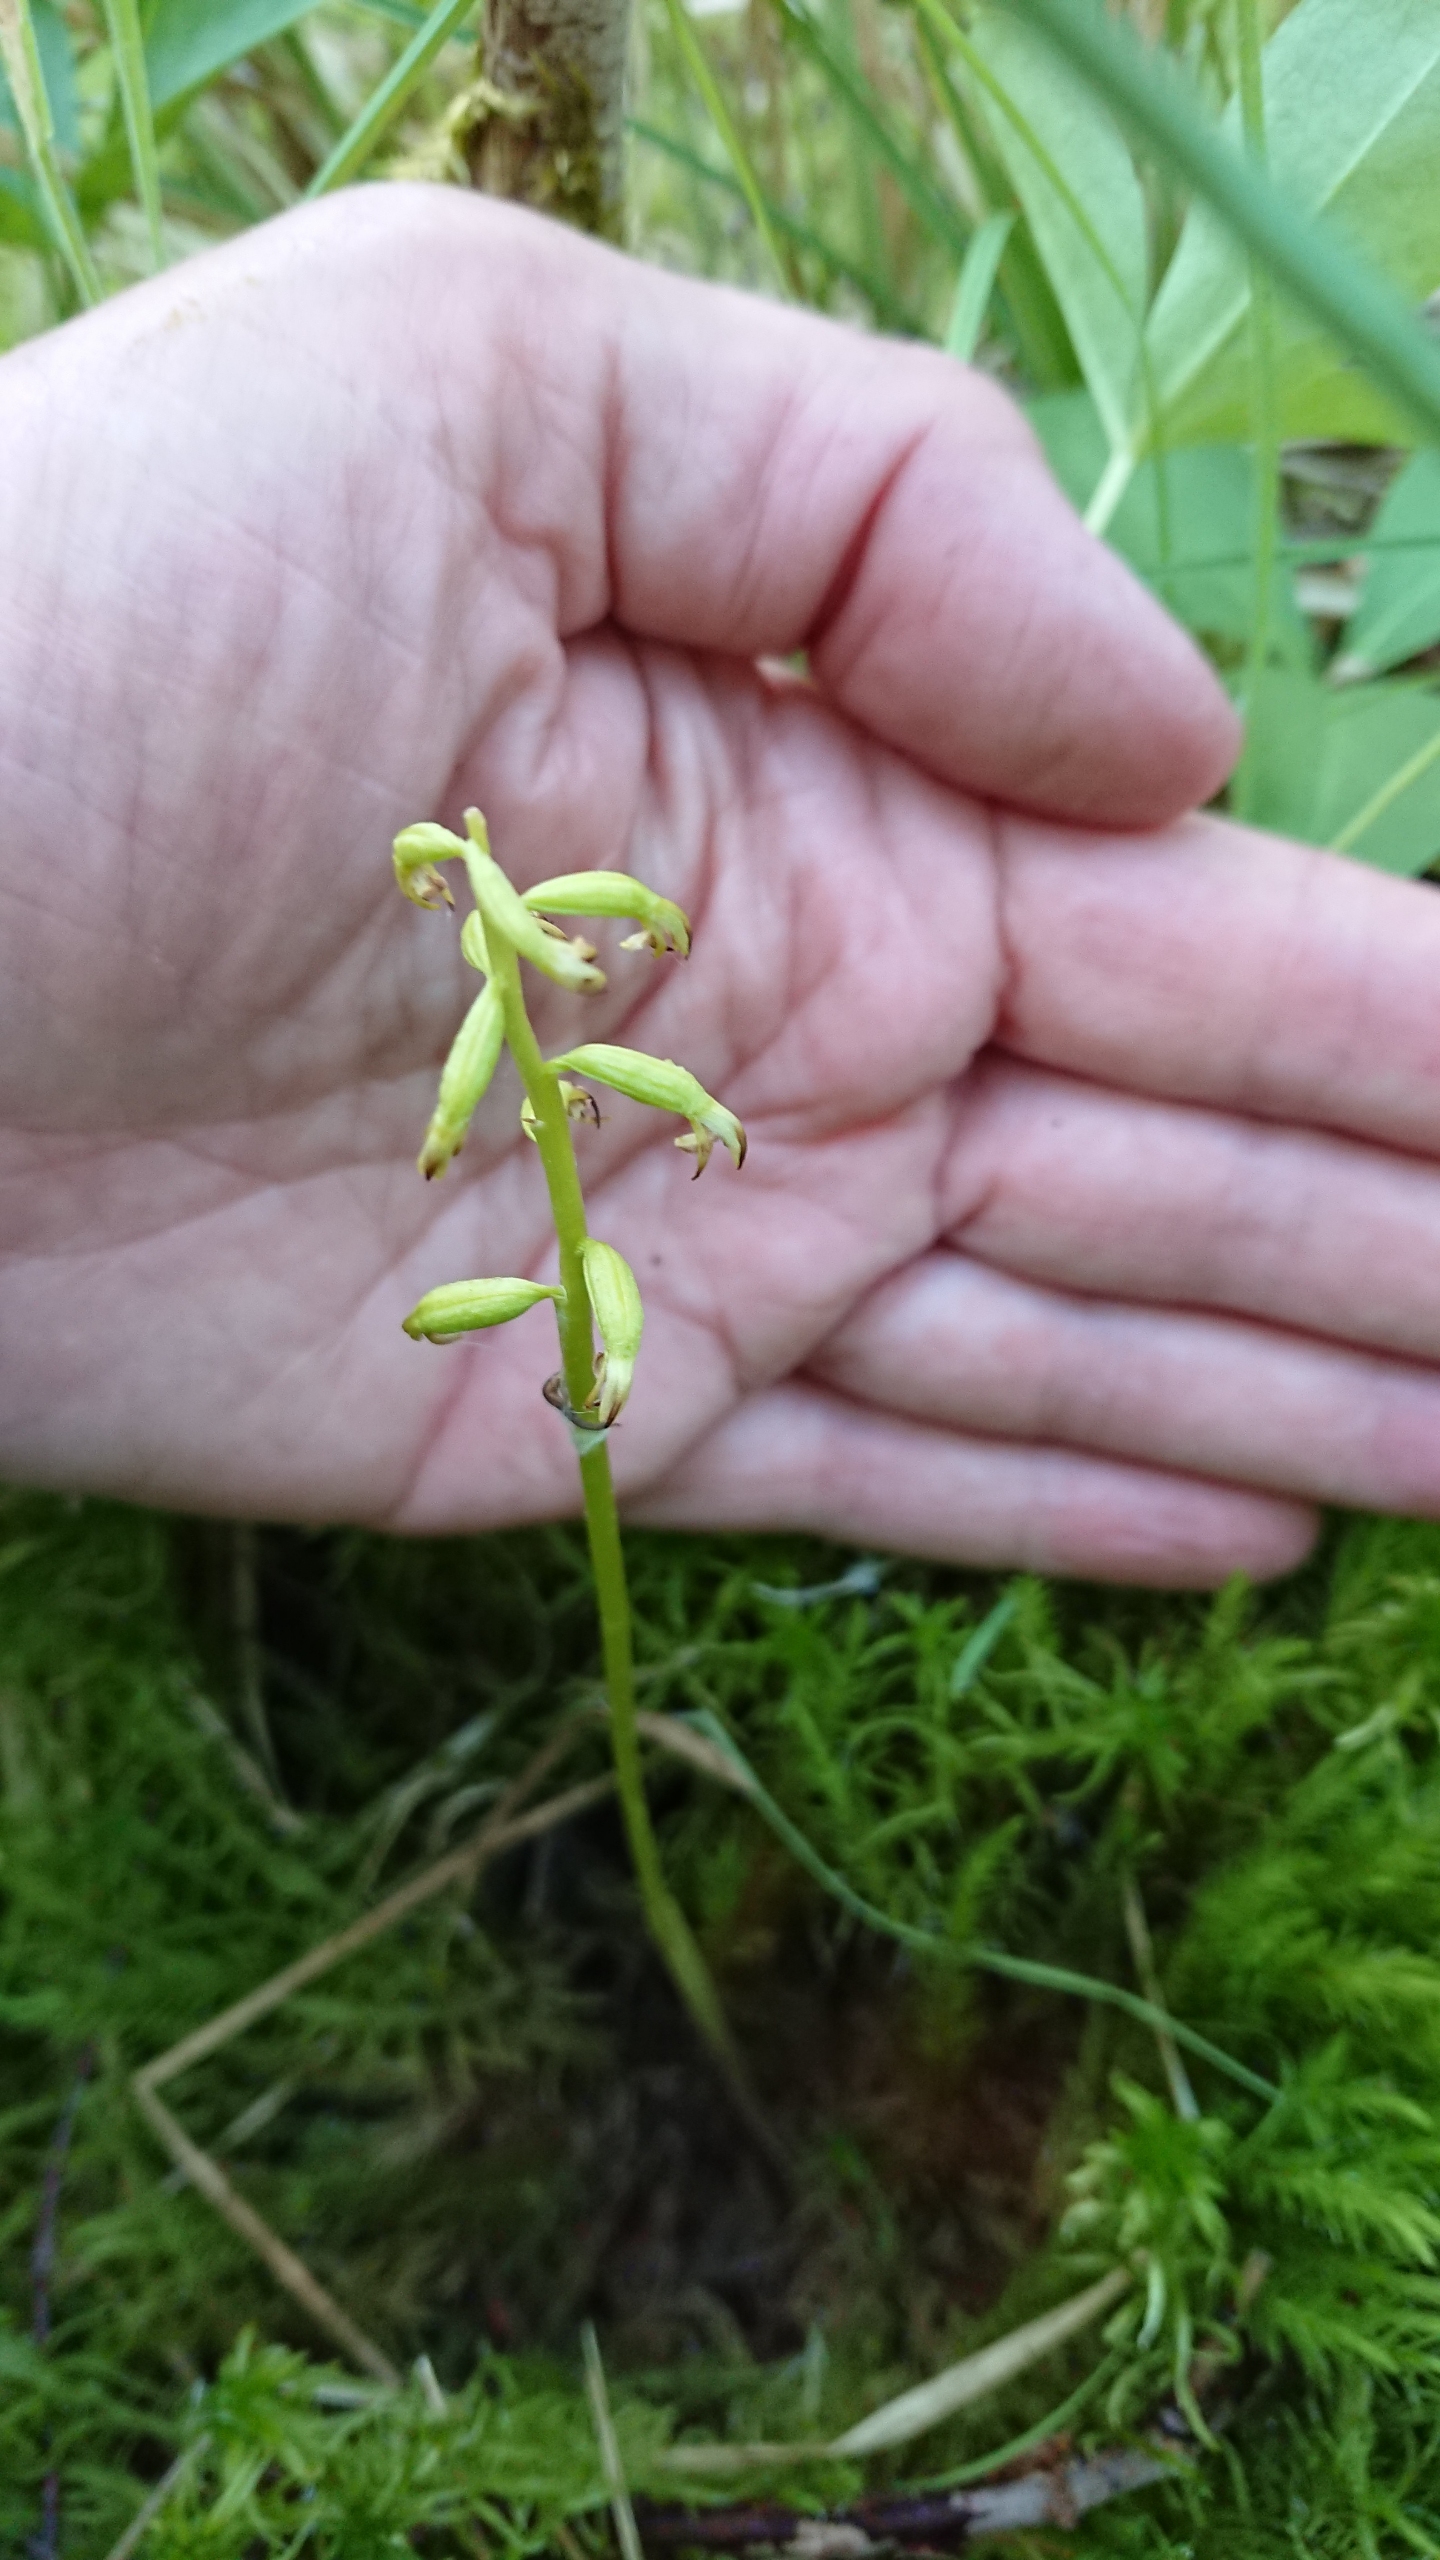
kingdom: Plantae
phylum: Tracheophyta
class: Liliopsida
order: Asparagales
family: Orchidaceae
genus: Corallorhiza
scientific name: Corallorhiza trifida
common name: Koralrod
